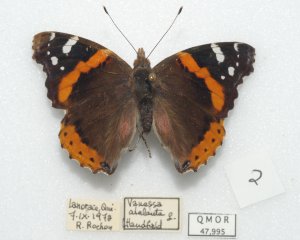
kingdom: Animalia
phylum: Arthropoda
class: Insecta
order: Lepidoptera
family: Nymphalidae
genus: Vanessa
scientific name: Vanessa atalanta
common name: Red Admiral
